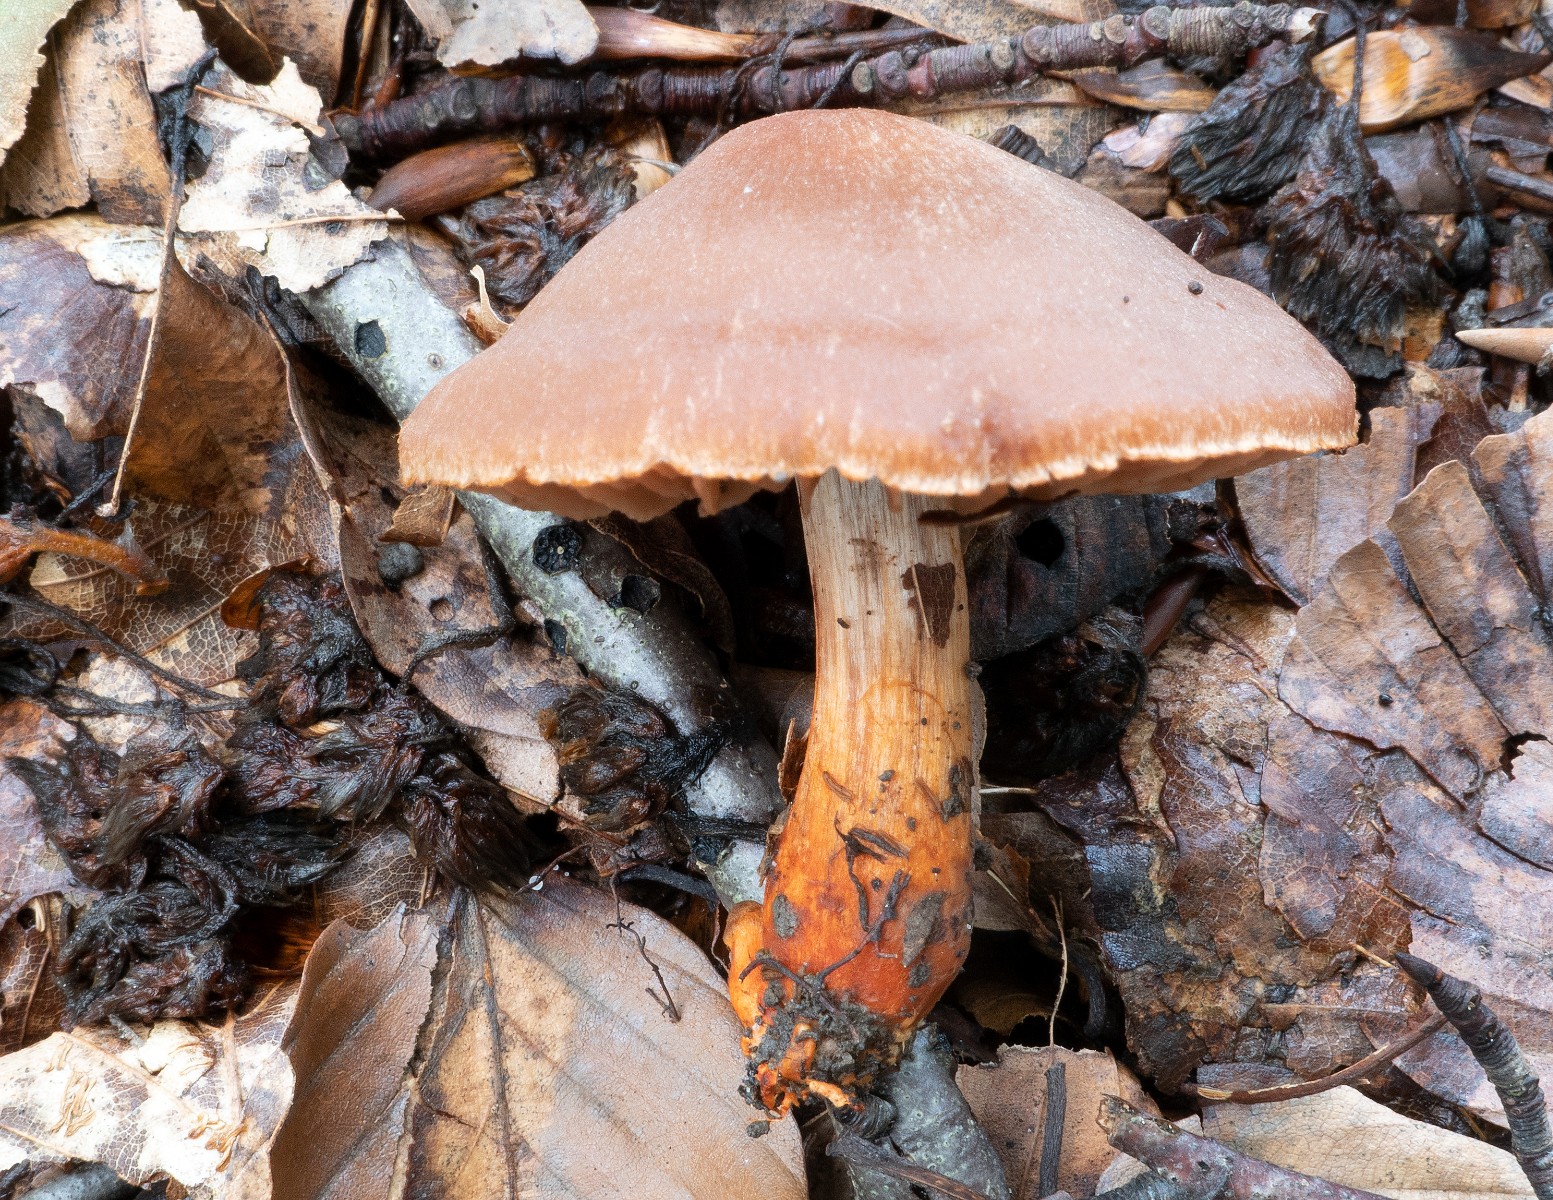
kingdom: Fungi
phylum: Basidiomycota
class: Agaricomycetes
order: Agaricales
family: Cortinariaceae
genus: Cortinarius
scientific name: Cortinarius bulliardii
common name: Bulliards slørhat
